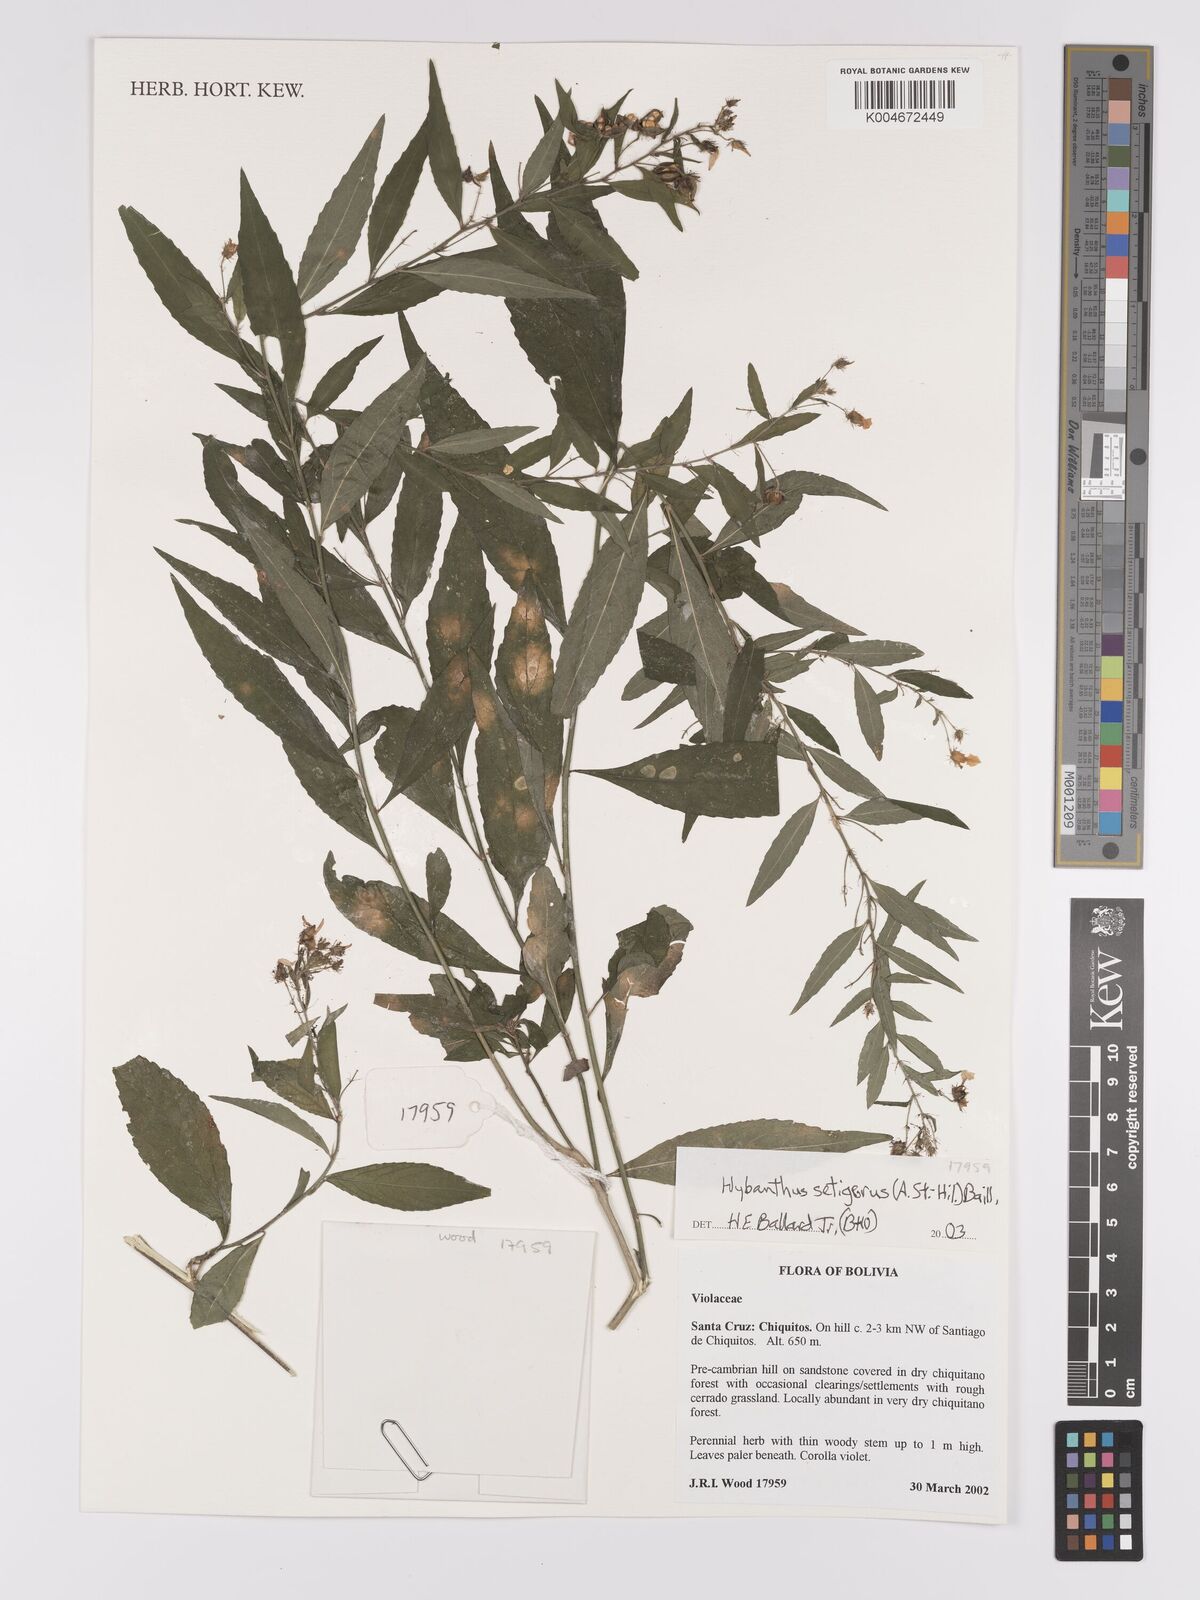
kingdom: Plantae
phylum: Tracheophyta
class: Magnoliopsida
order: Malpighiales
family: Violaceae
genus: Pombalia
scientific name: Pombalia setigera
